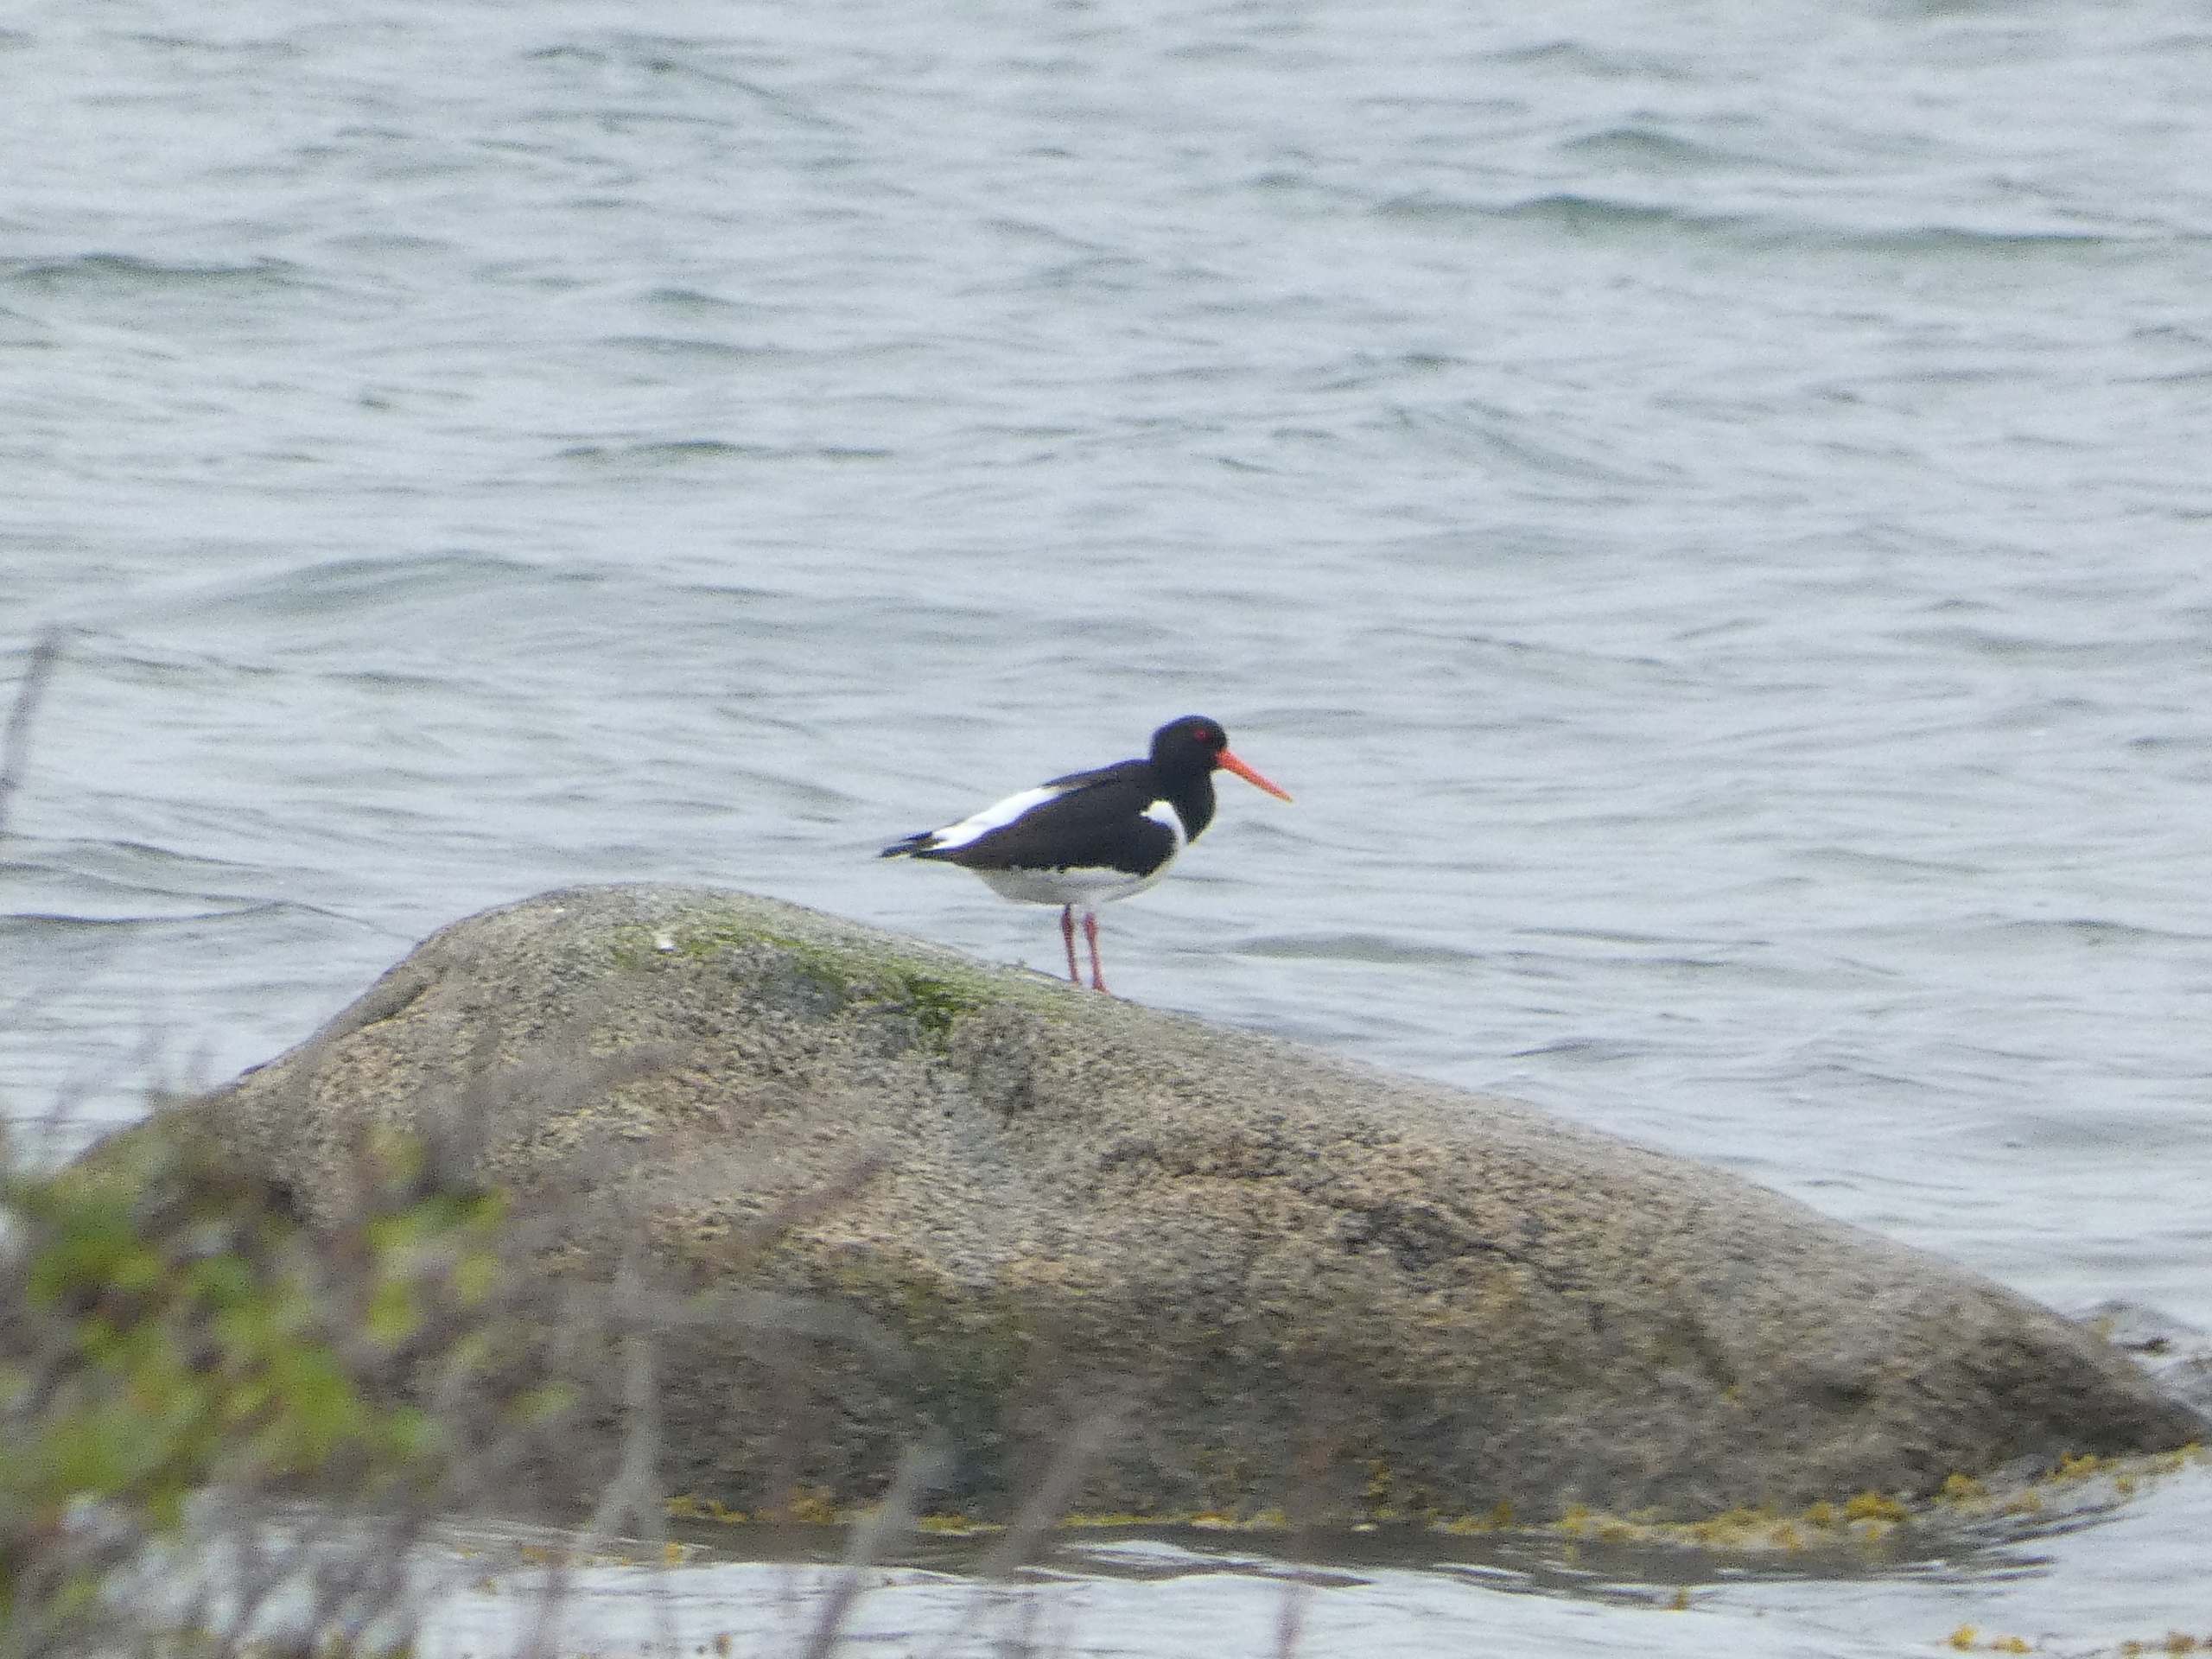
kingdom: Animalia
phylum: Chordata
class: Aves
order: Charadriiformes
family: Haematopodidae
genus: Haematopus
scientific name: Haematopus ostralegus
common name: Strandskade
